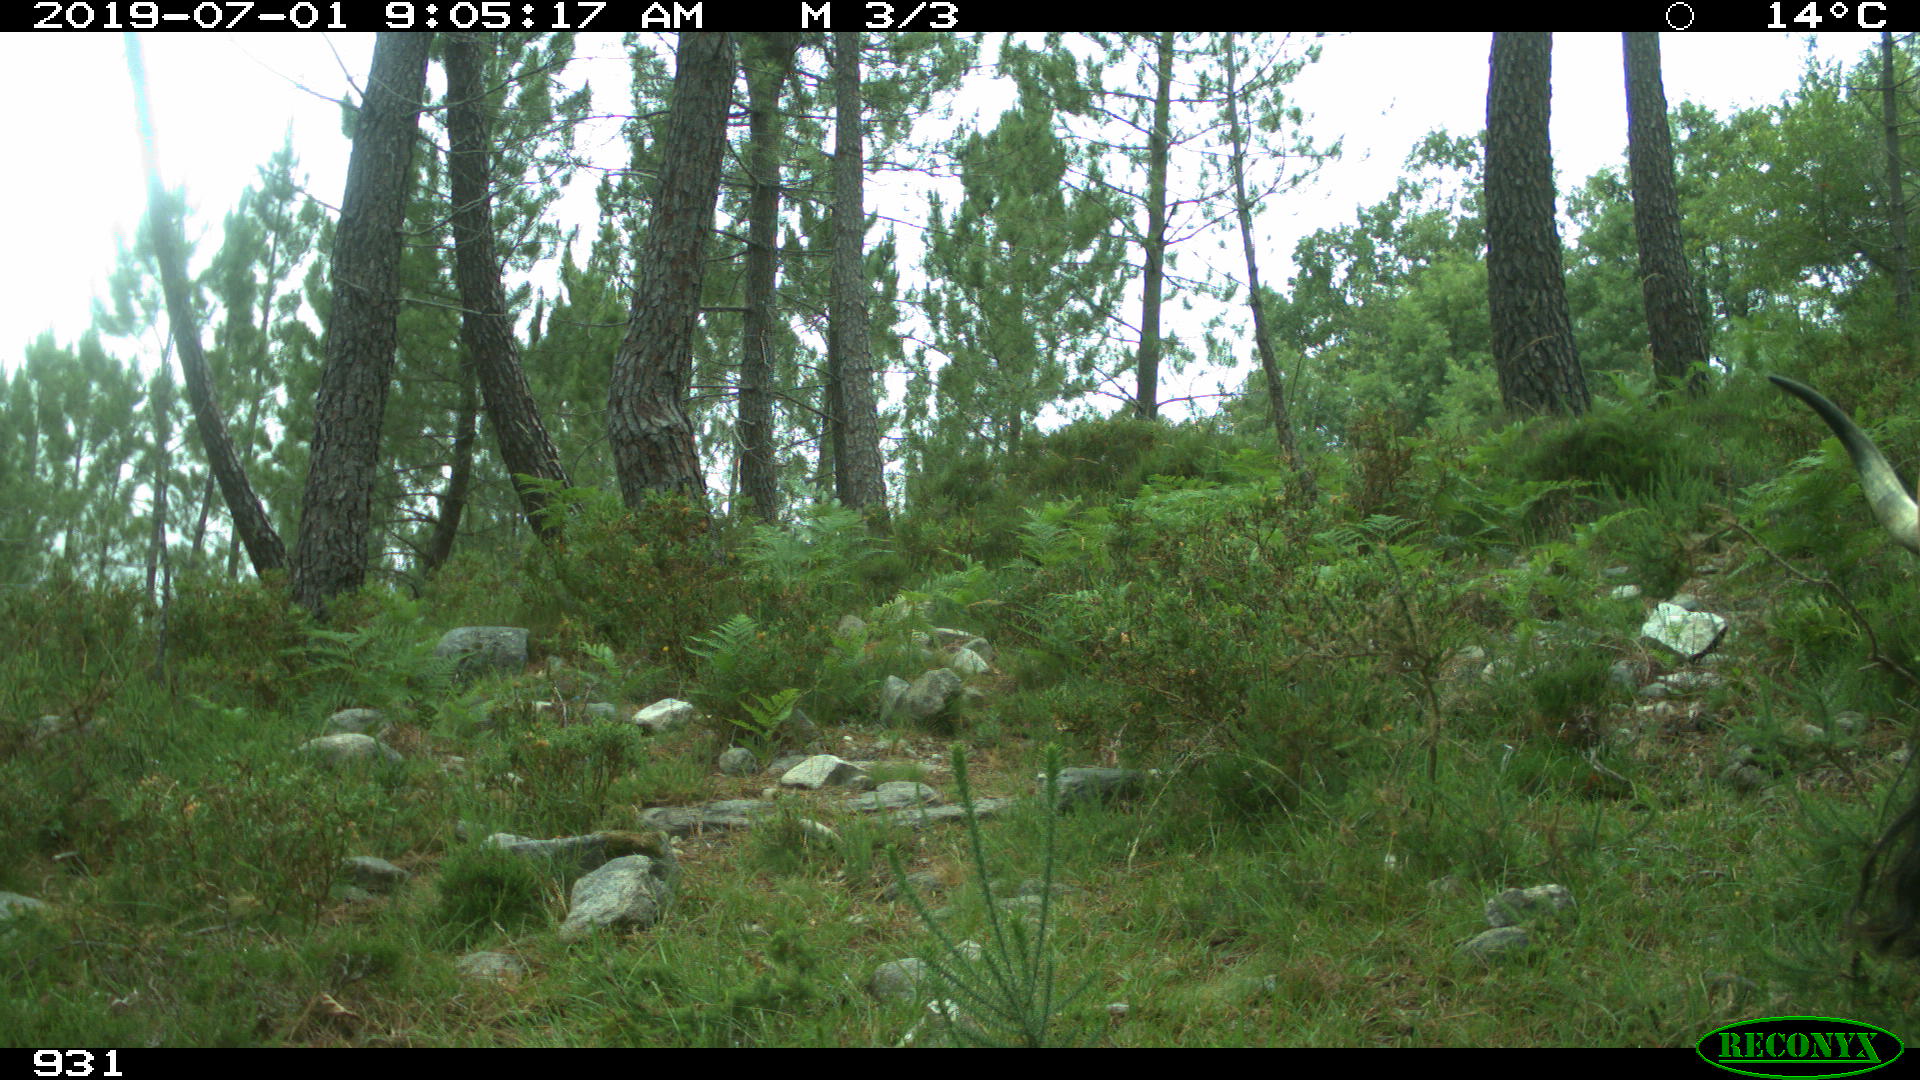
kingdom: Animalia
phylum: Chordata
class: Mammalia
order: Artiodactyla
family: Bovidae
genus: Bos
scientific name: Bos taurus
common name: Domesticated cattle
